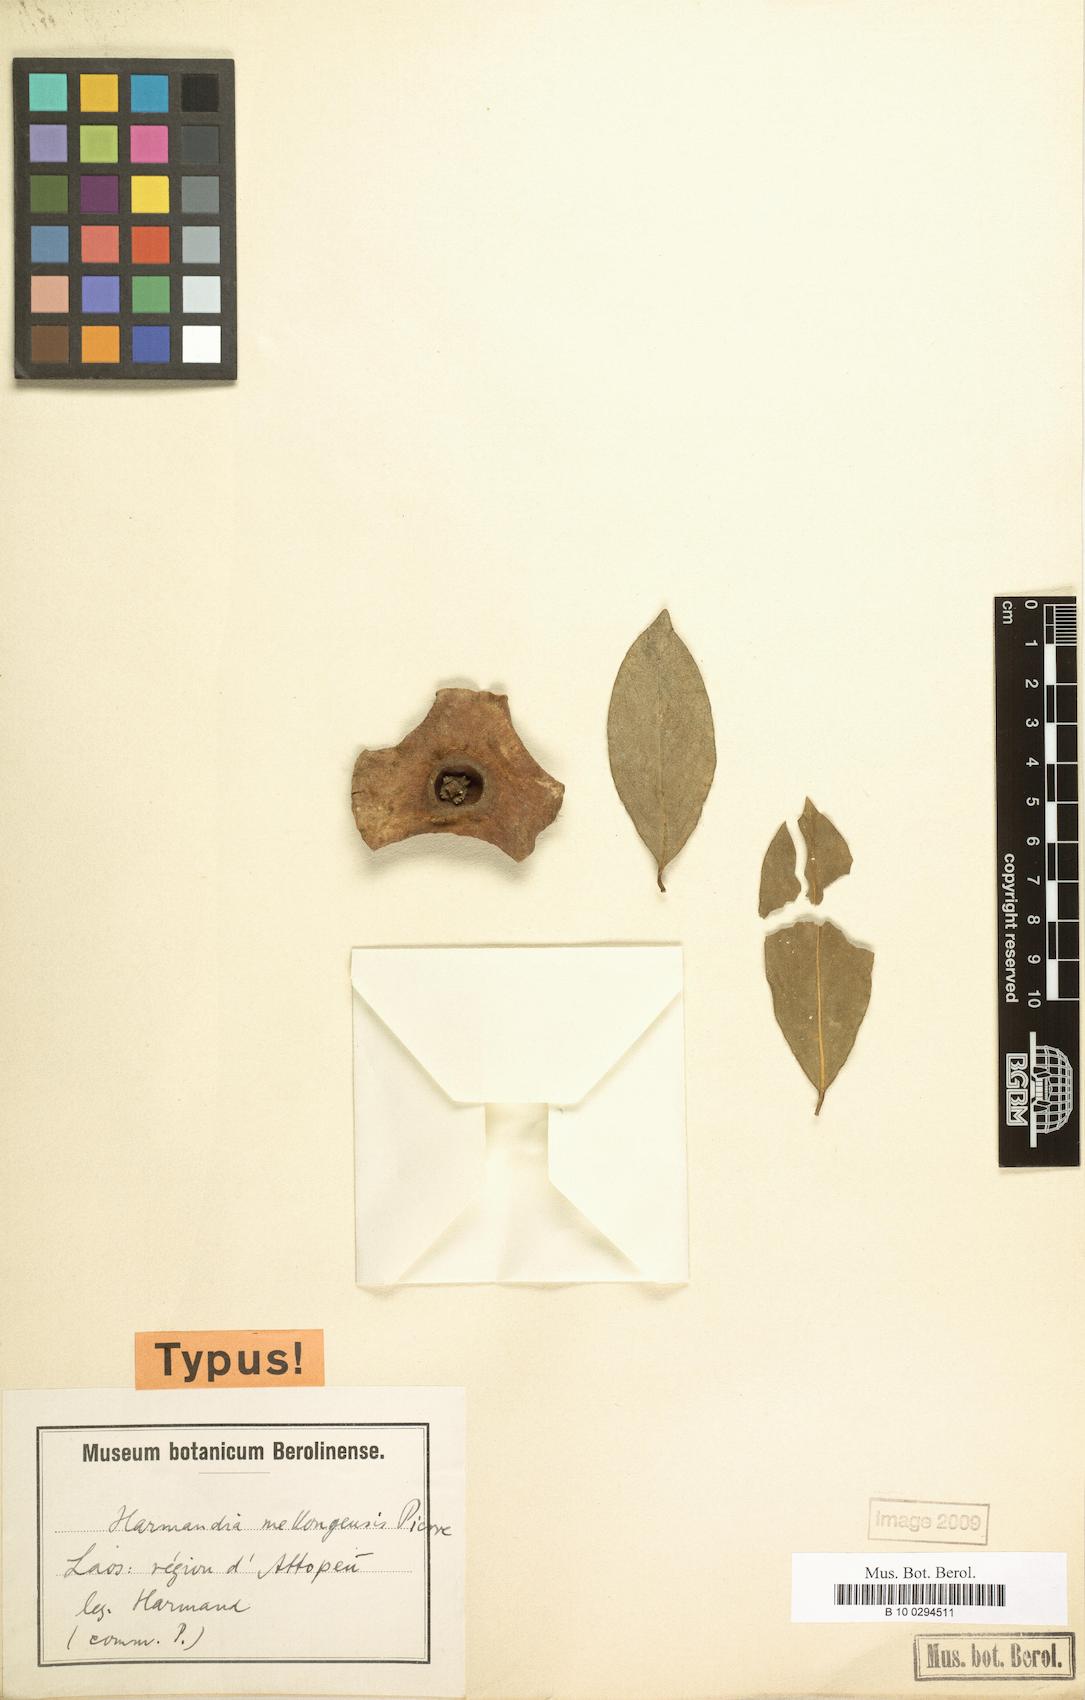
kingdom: Plantae
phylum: Tracheophyta
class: Magnoliopsida
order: Santalales
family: Aptandraceae
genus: Harmandia
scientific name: Harmandia mekongensis
